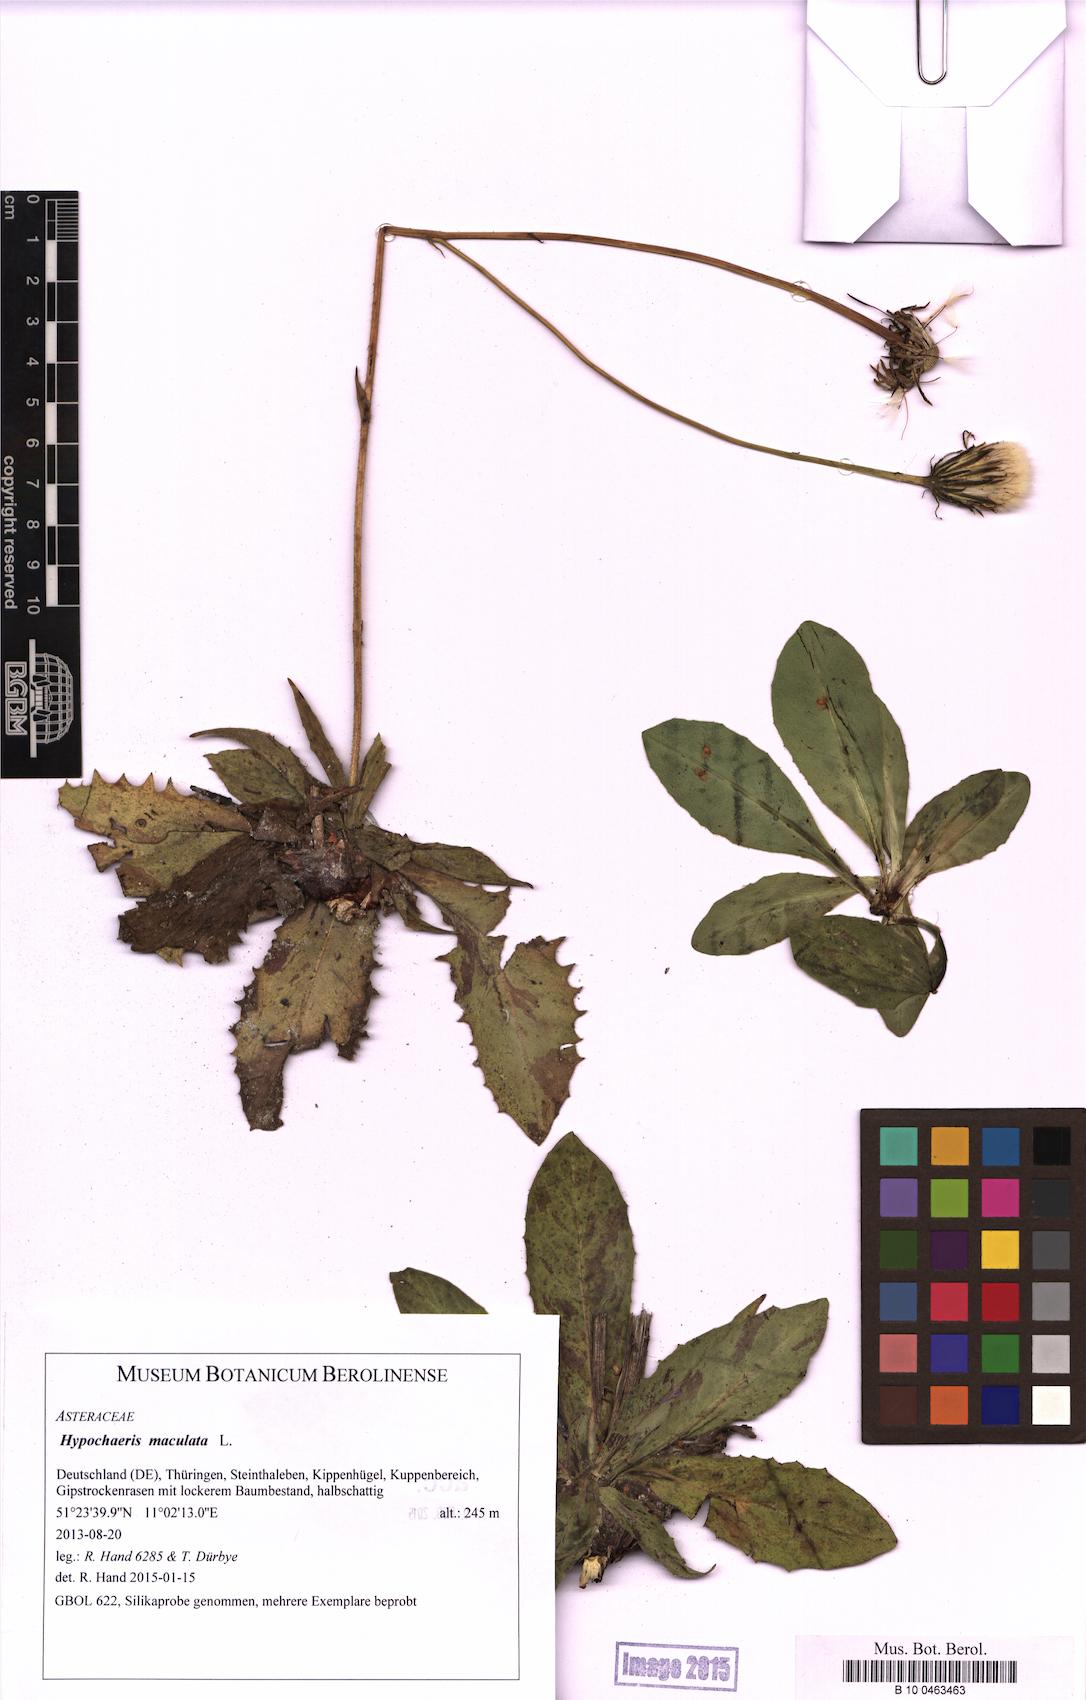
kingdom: Plantae
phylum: Tracheophyta
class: Magnoliopsida
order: Asterales
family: Asteraceae
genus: Trommsdorffia
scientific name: Trommsdorffia maculata
